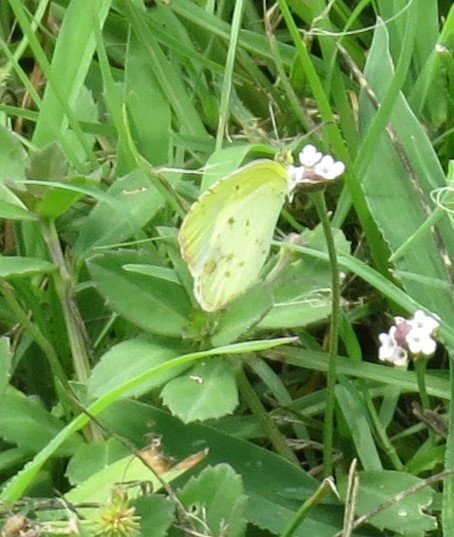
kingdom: Animalia
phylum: Arthropoda
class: Insecta
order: Lepidoptera
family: Pieridae
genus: Pyrisitia
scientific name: Pyrisitia lisa
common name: Little Yellow
